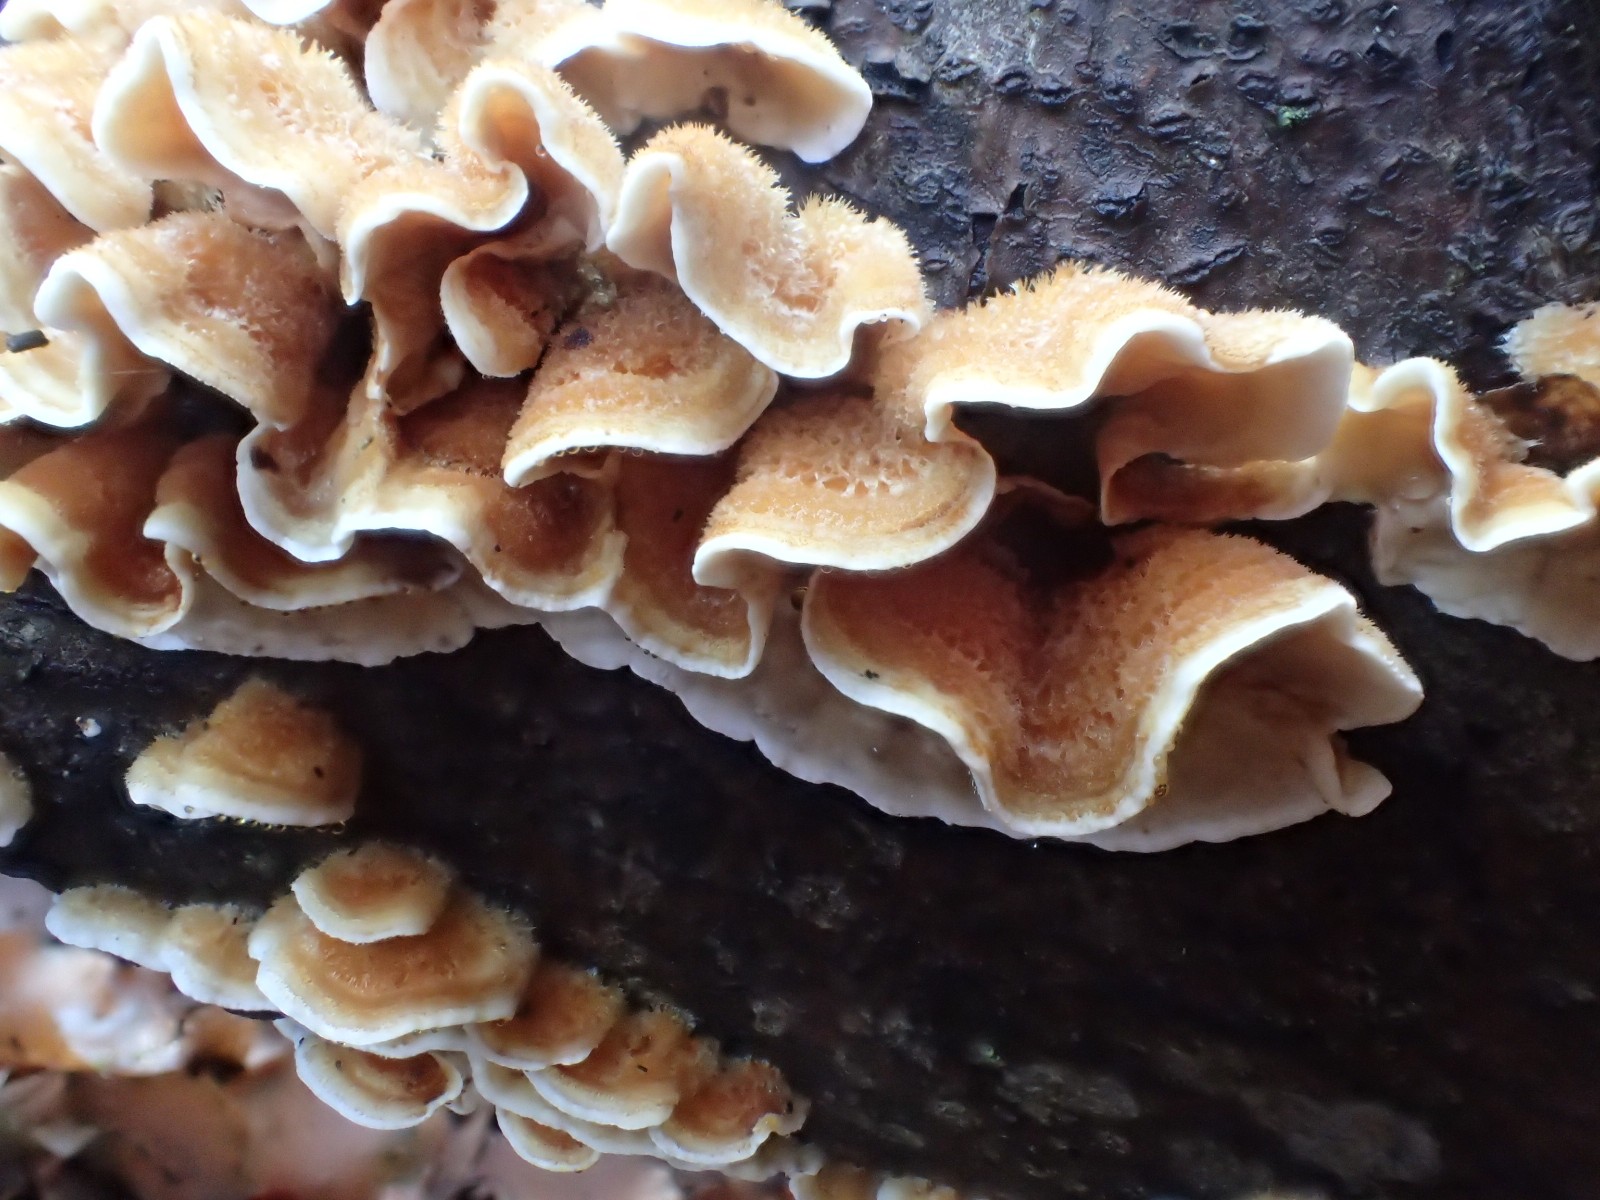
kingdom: Fungi
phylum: Basidiomycota
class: Agaricomycetes
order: Russulales
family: Stereaceae
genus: Stereum
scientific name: Stereum hirsutum
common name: håret lædersvamp
